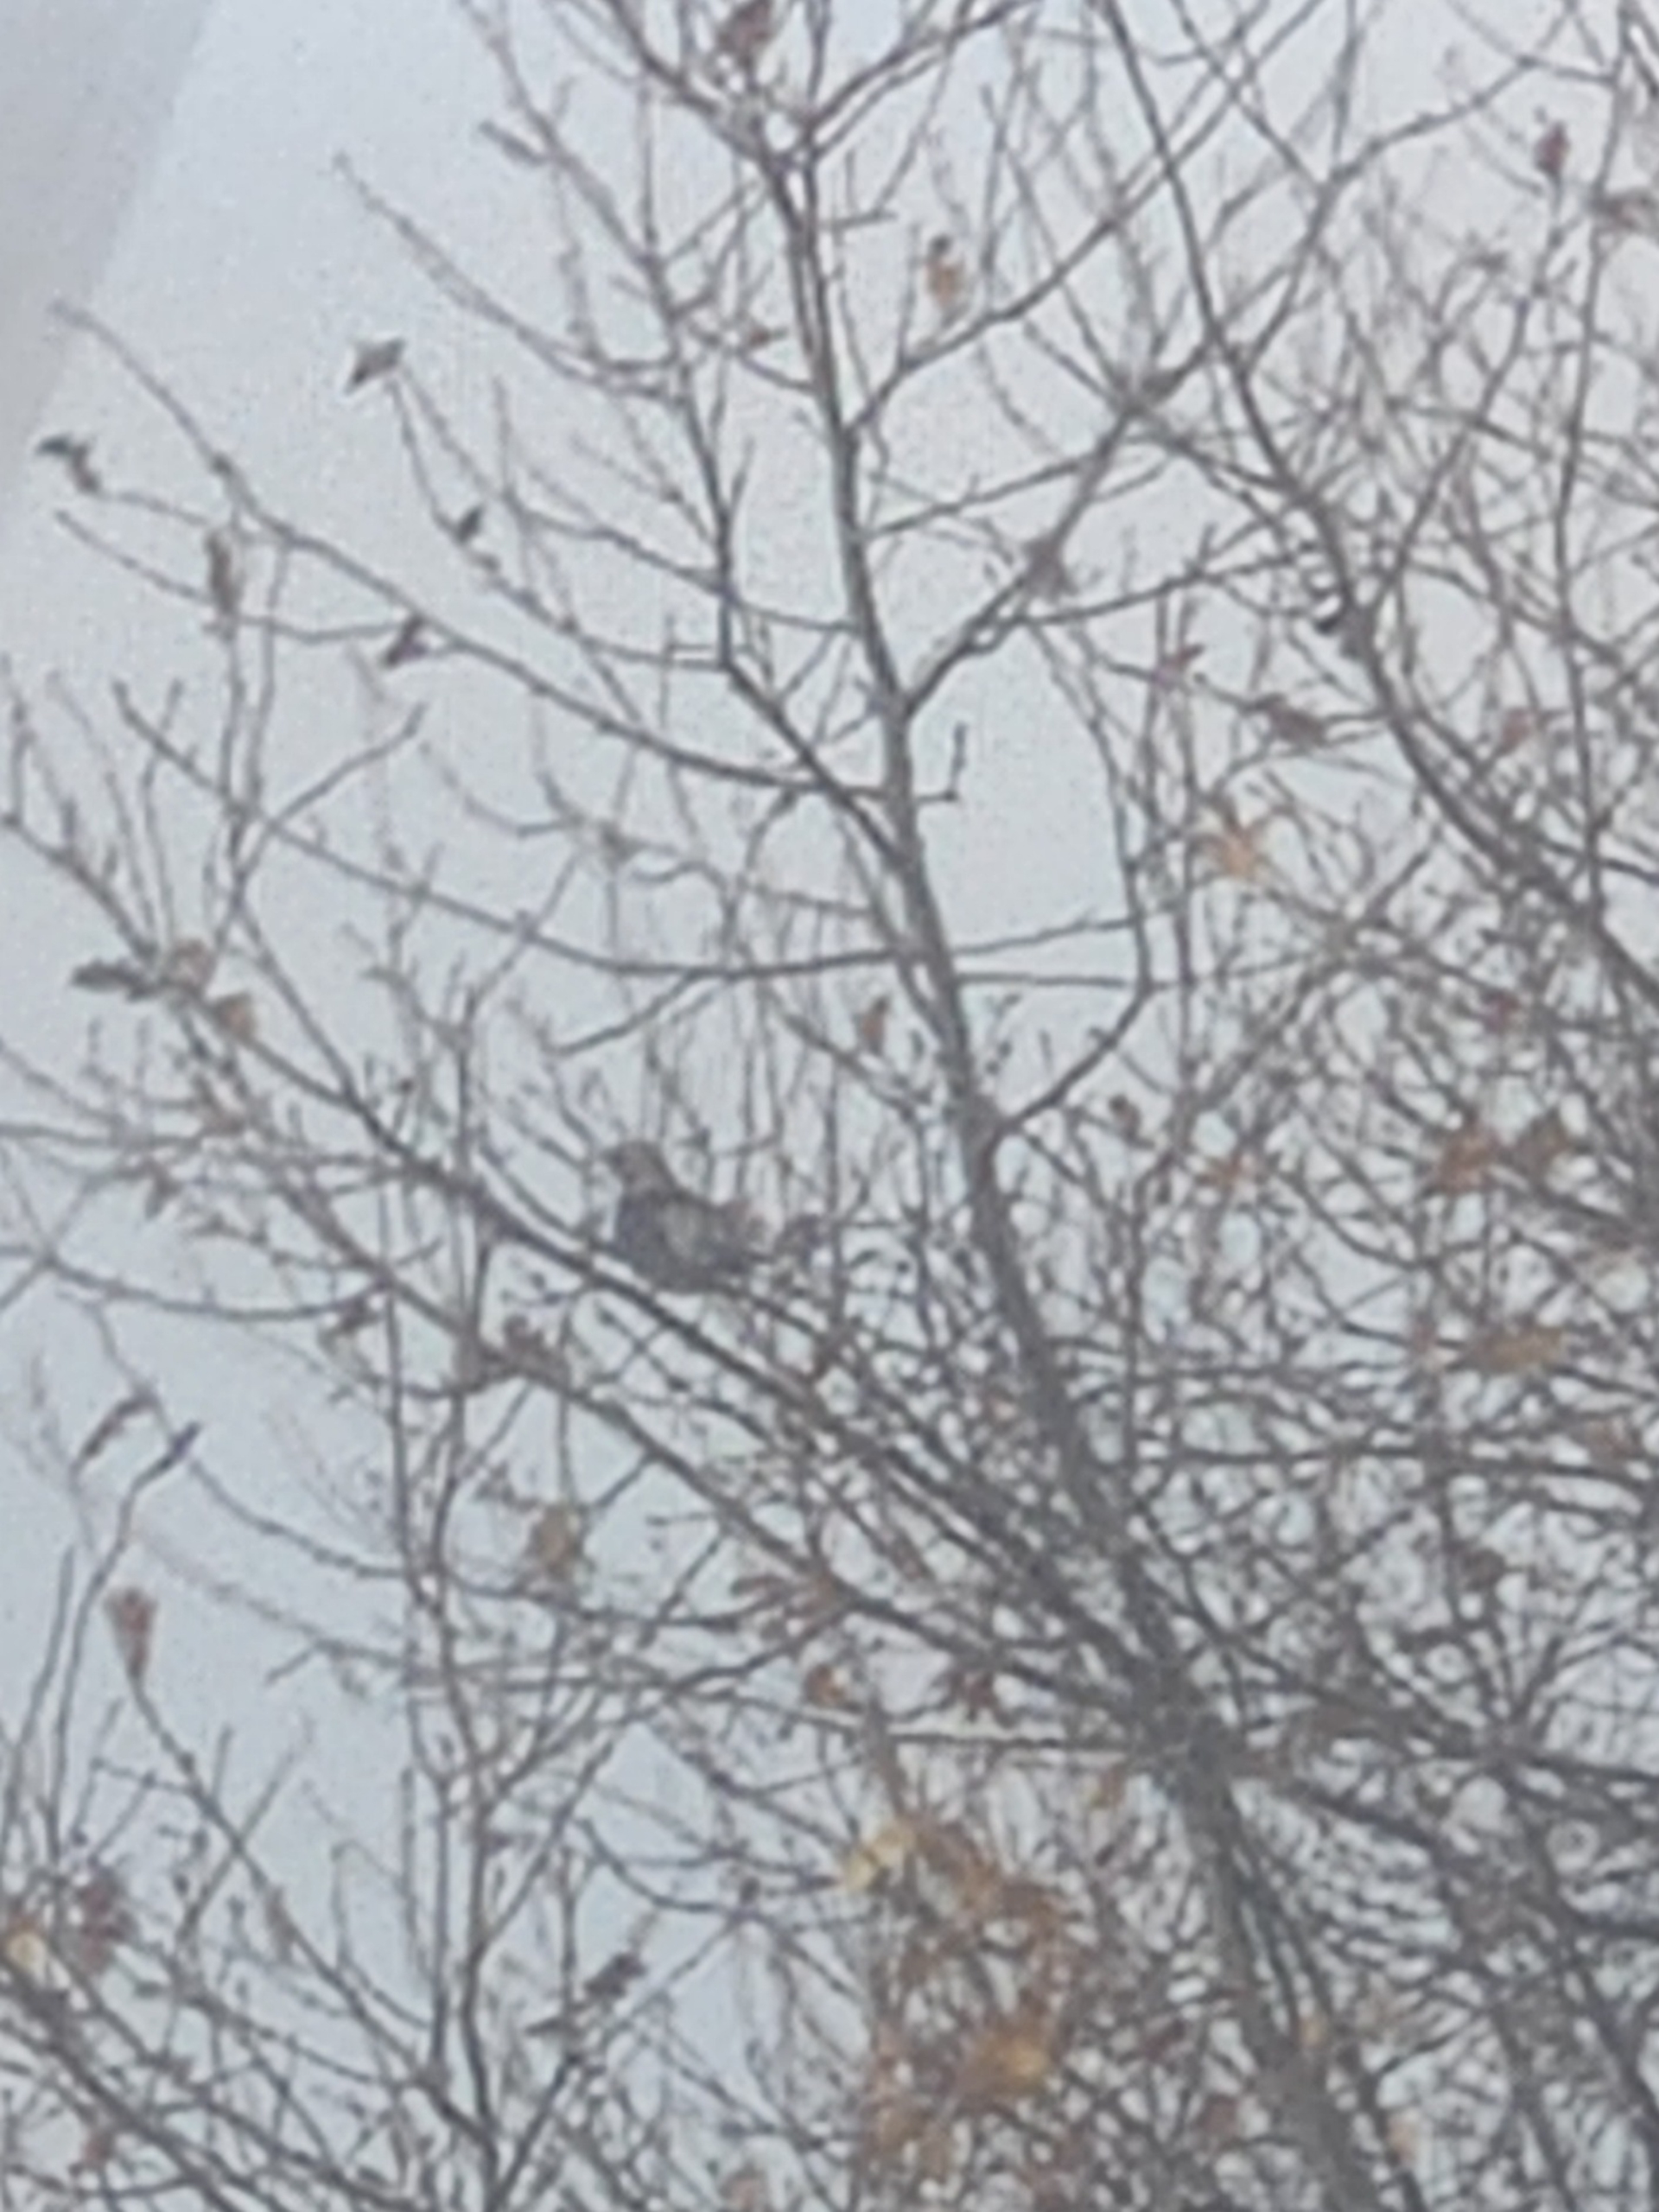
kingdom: Animalia
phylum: Chordata
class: Aves
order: Passeriformes
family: Turdidae
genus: Turdus
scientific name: Turdus pilaris
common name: Sjagger
